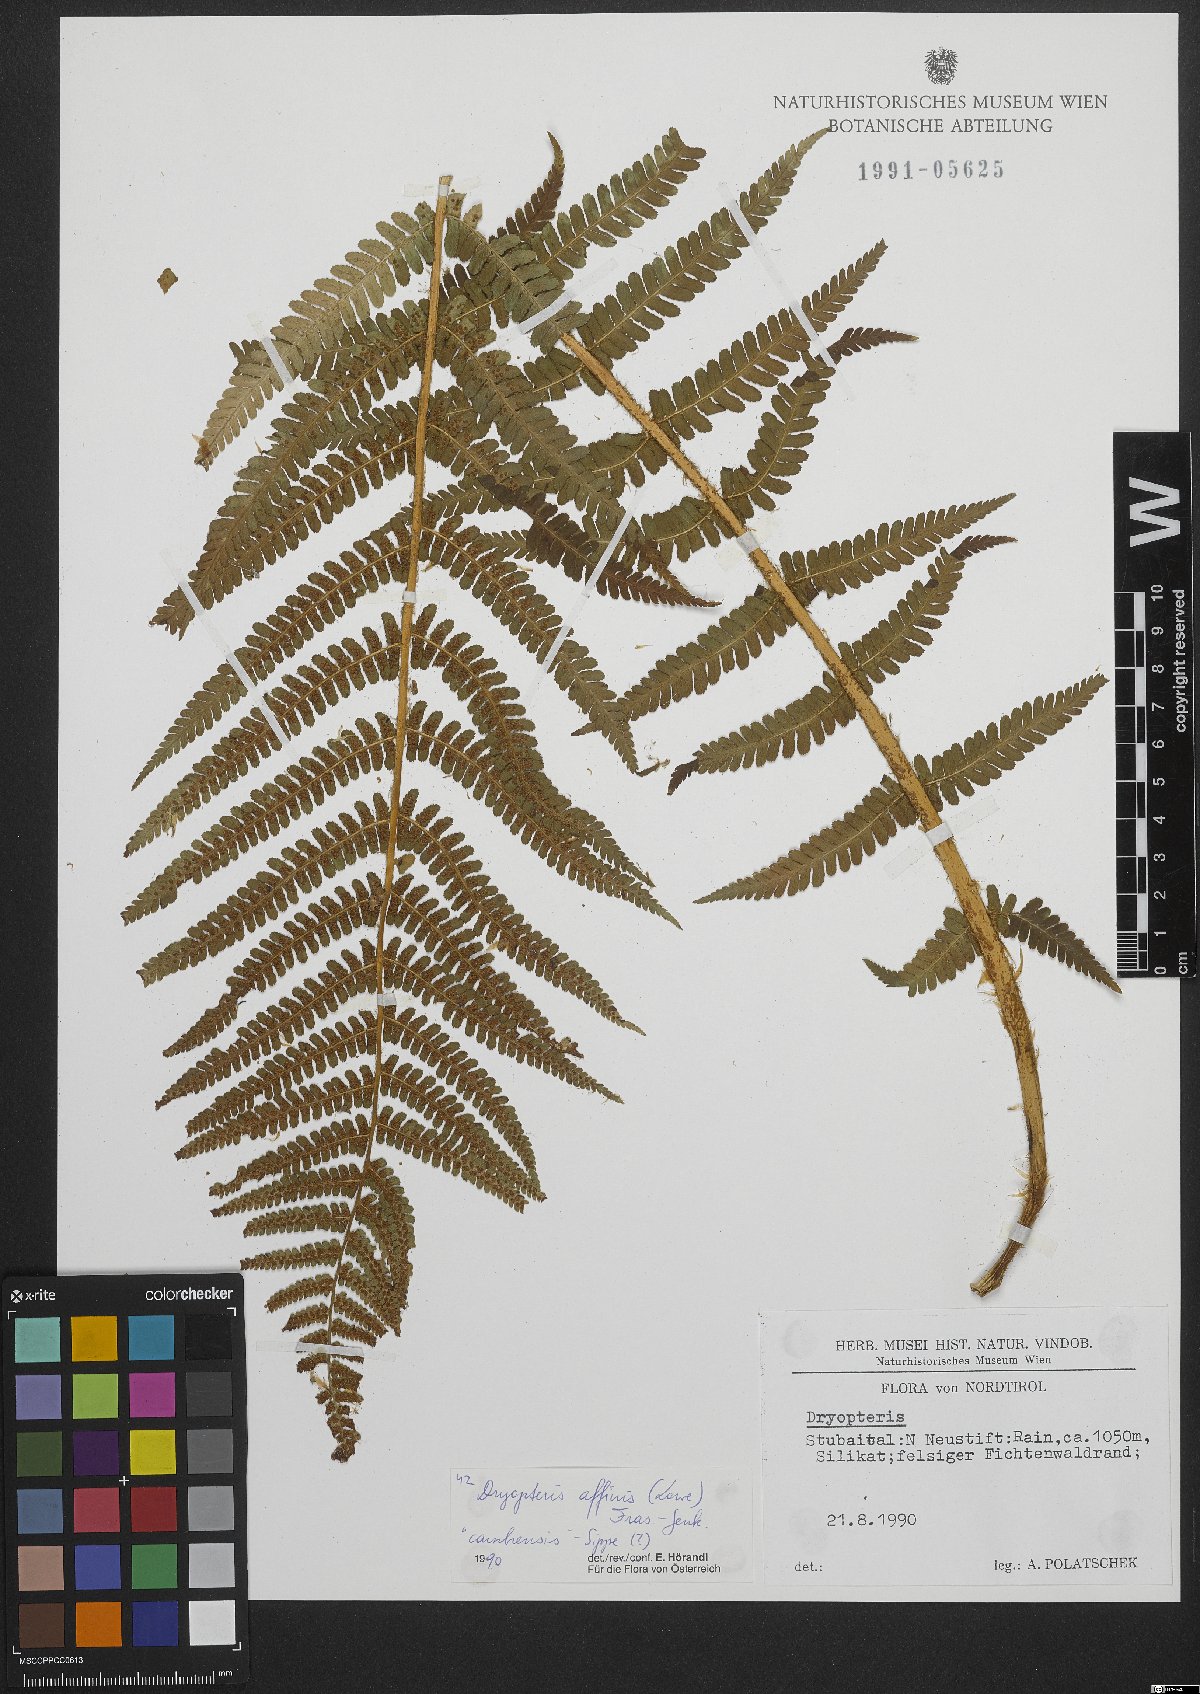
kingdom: Plantae
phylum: Tracheophyta
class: Polypodiopsida
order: Polypodiales
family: Dryopteridaceae
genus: Dryopteris
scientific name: Dryopteris filix-mas
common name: Male fern
